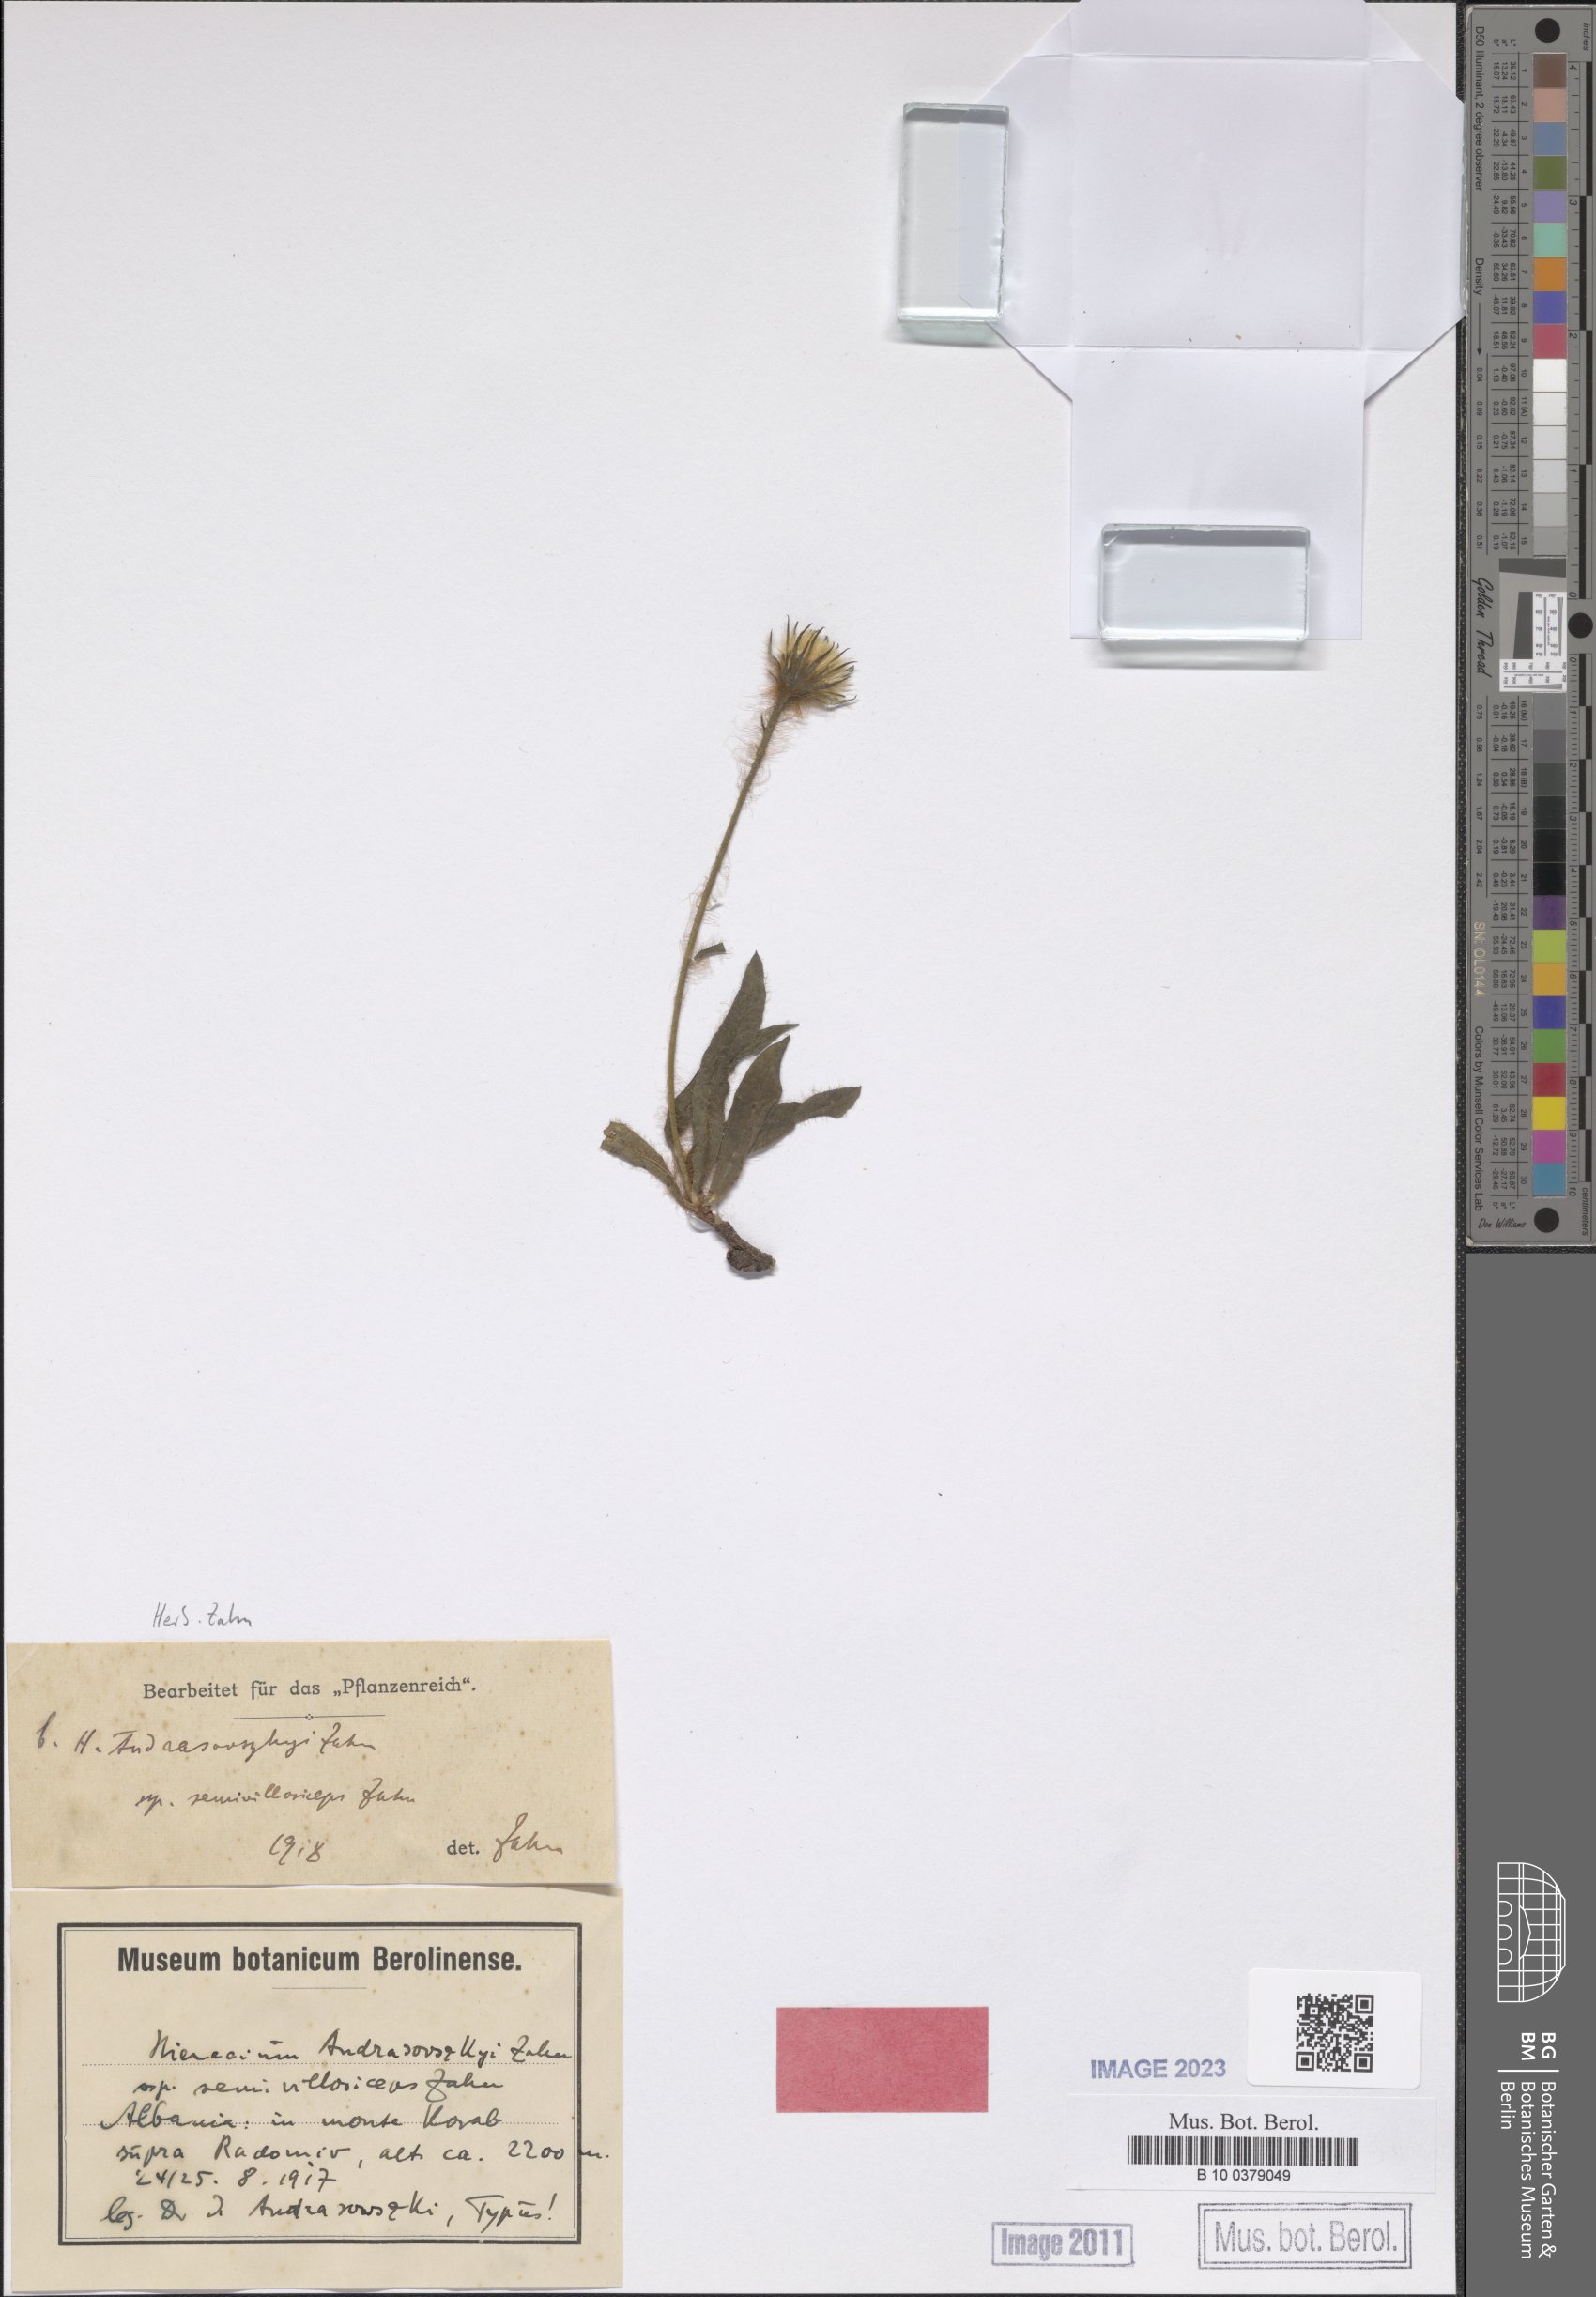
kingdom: Plantae
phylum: Tracheophyta
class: Magnoliopsida
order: Asterales
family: Asteraceae
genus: Hieracium
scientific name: Hieracium huetianum
